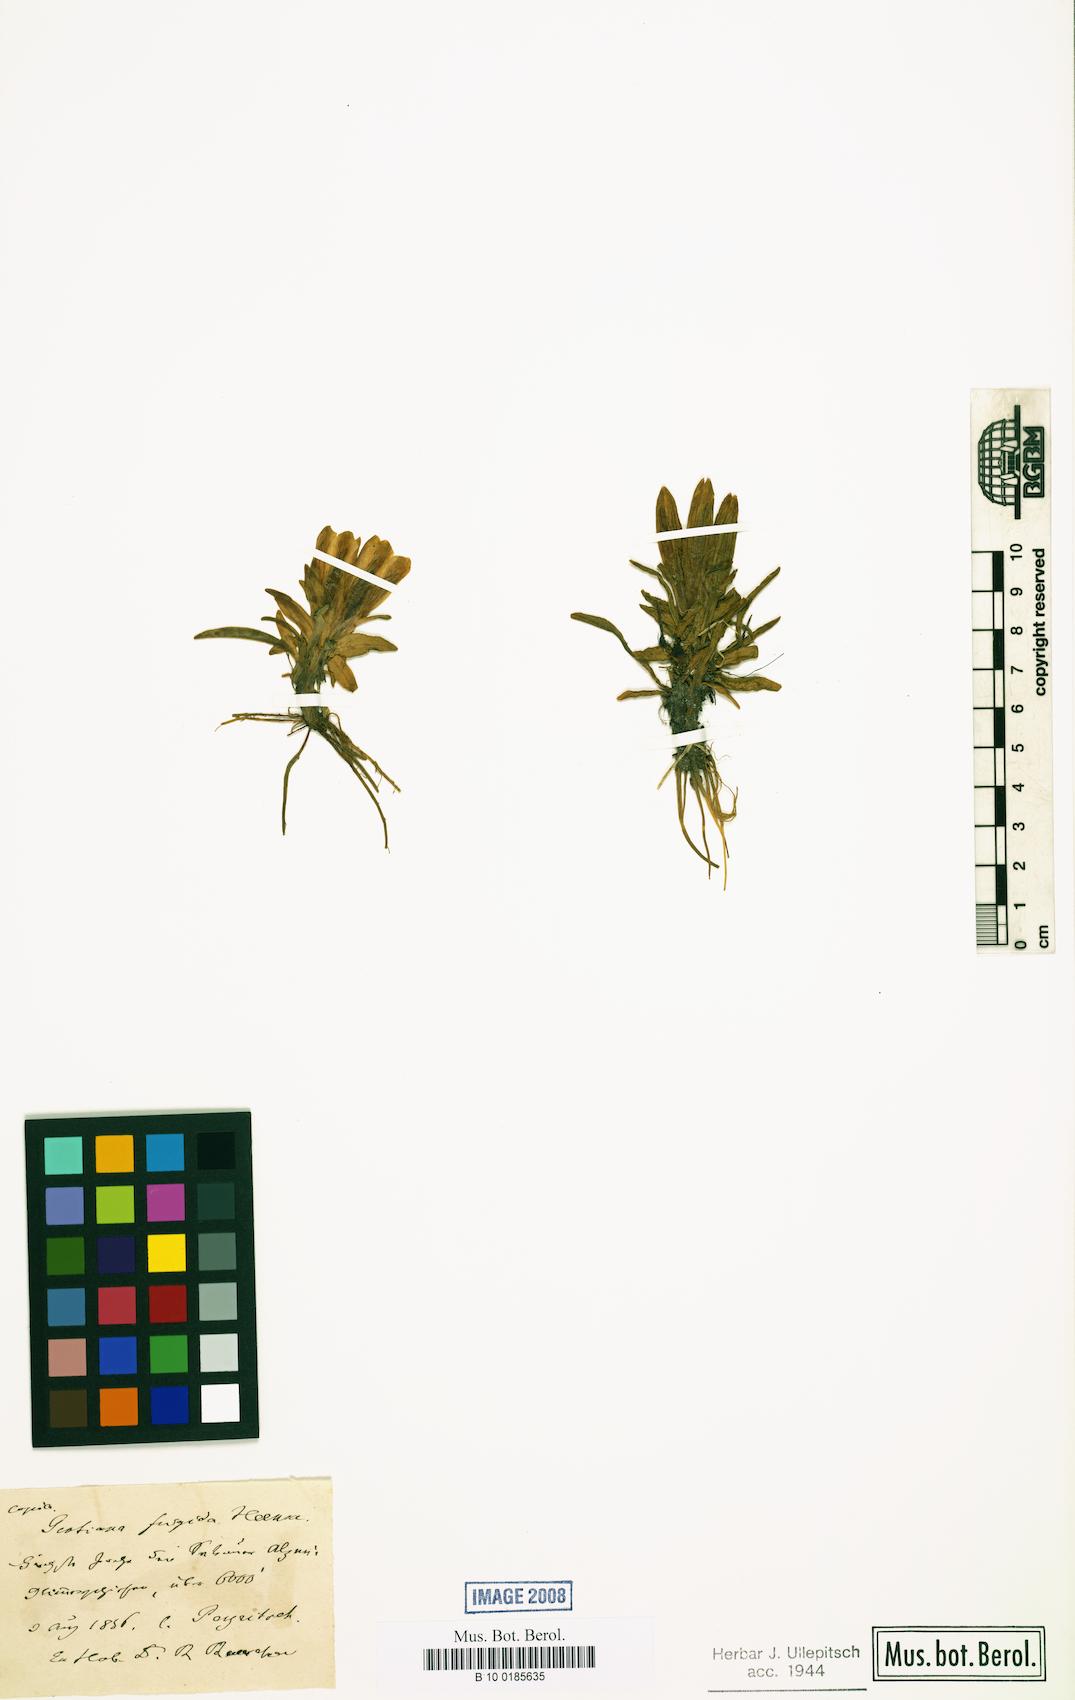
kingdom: Plantae
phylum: Tracheophyta
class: Magnoliopsida
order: Gentianales
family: Gentianaceae
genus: Gentiana
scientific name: Gentiana frigida
